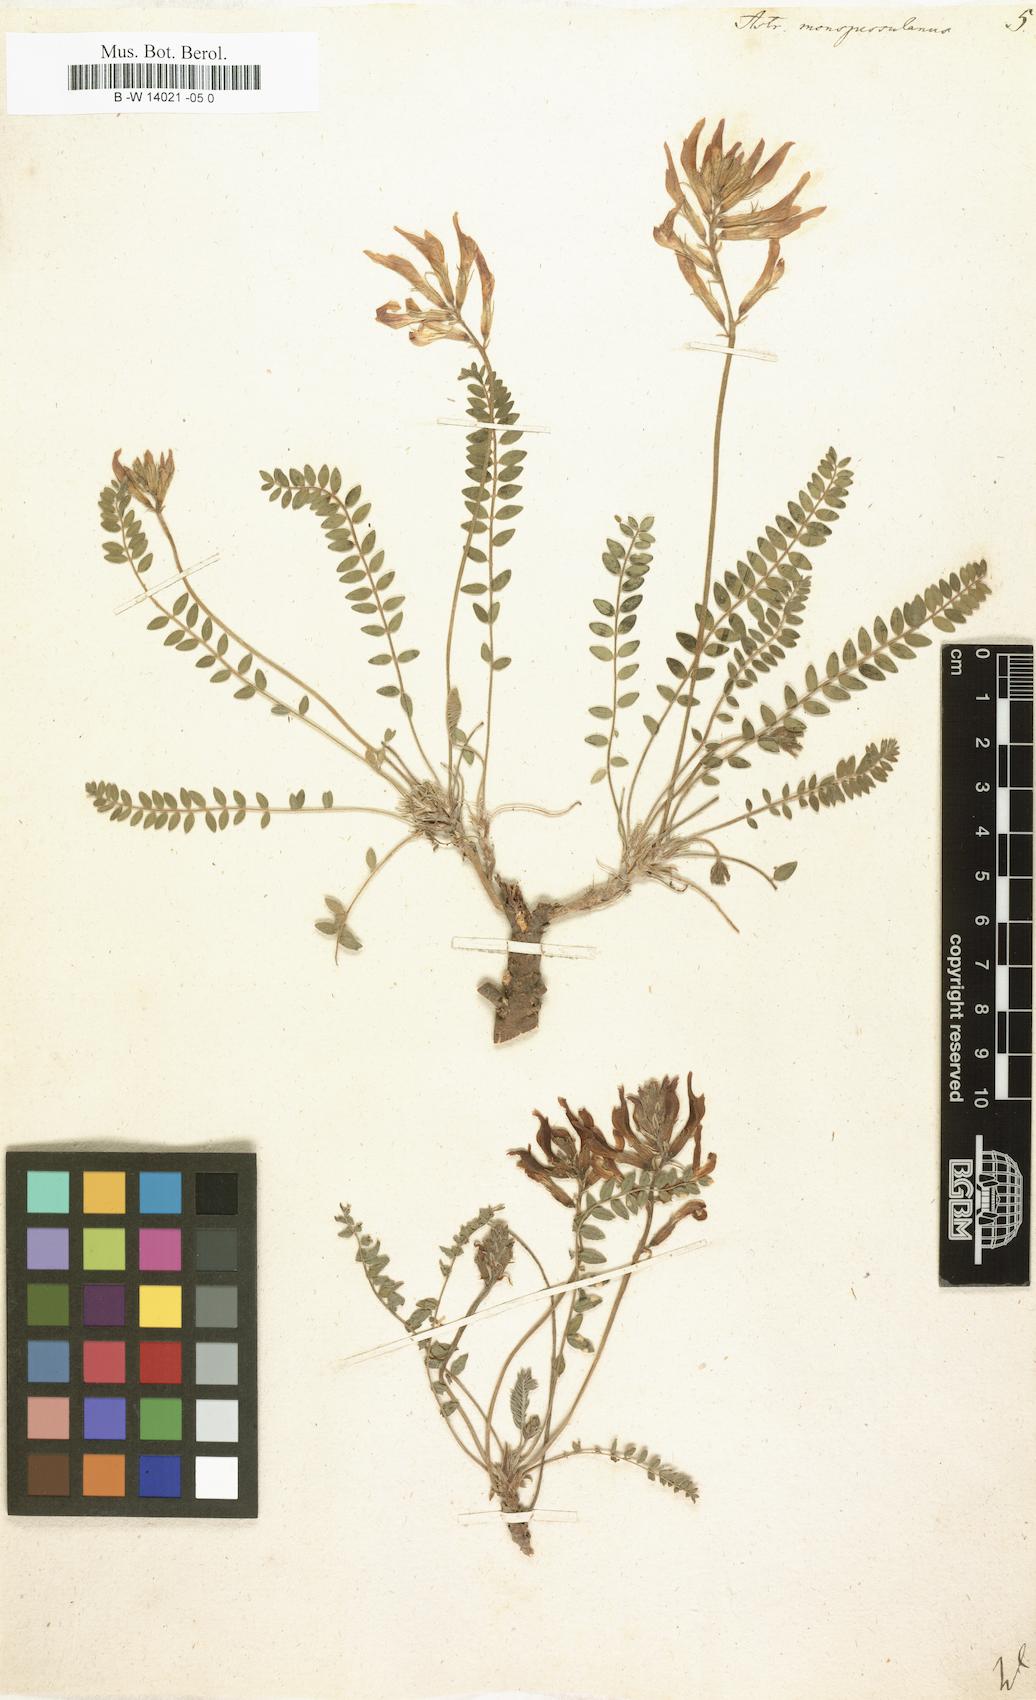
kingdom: Plantae
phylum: Tracheophyta
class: Magnoliopsida
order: Fabales
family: Fabaceae
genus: Astragalus
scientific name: Astragalus monspessulanus
